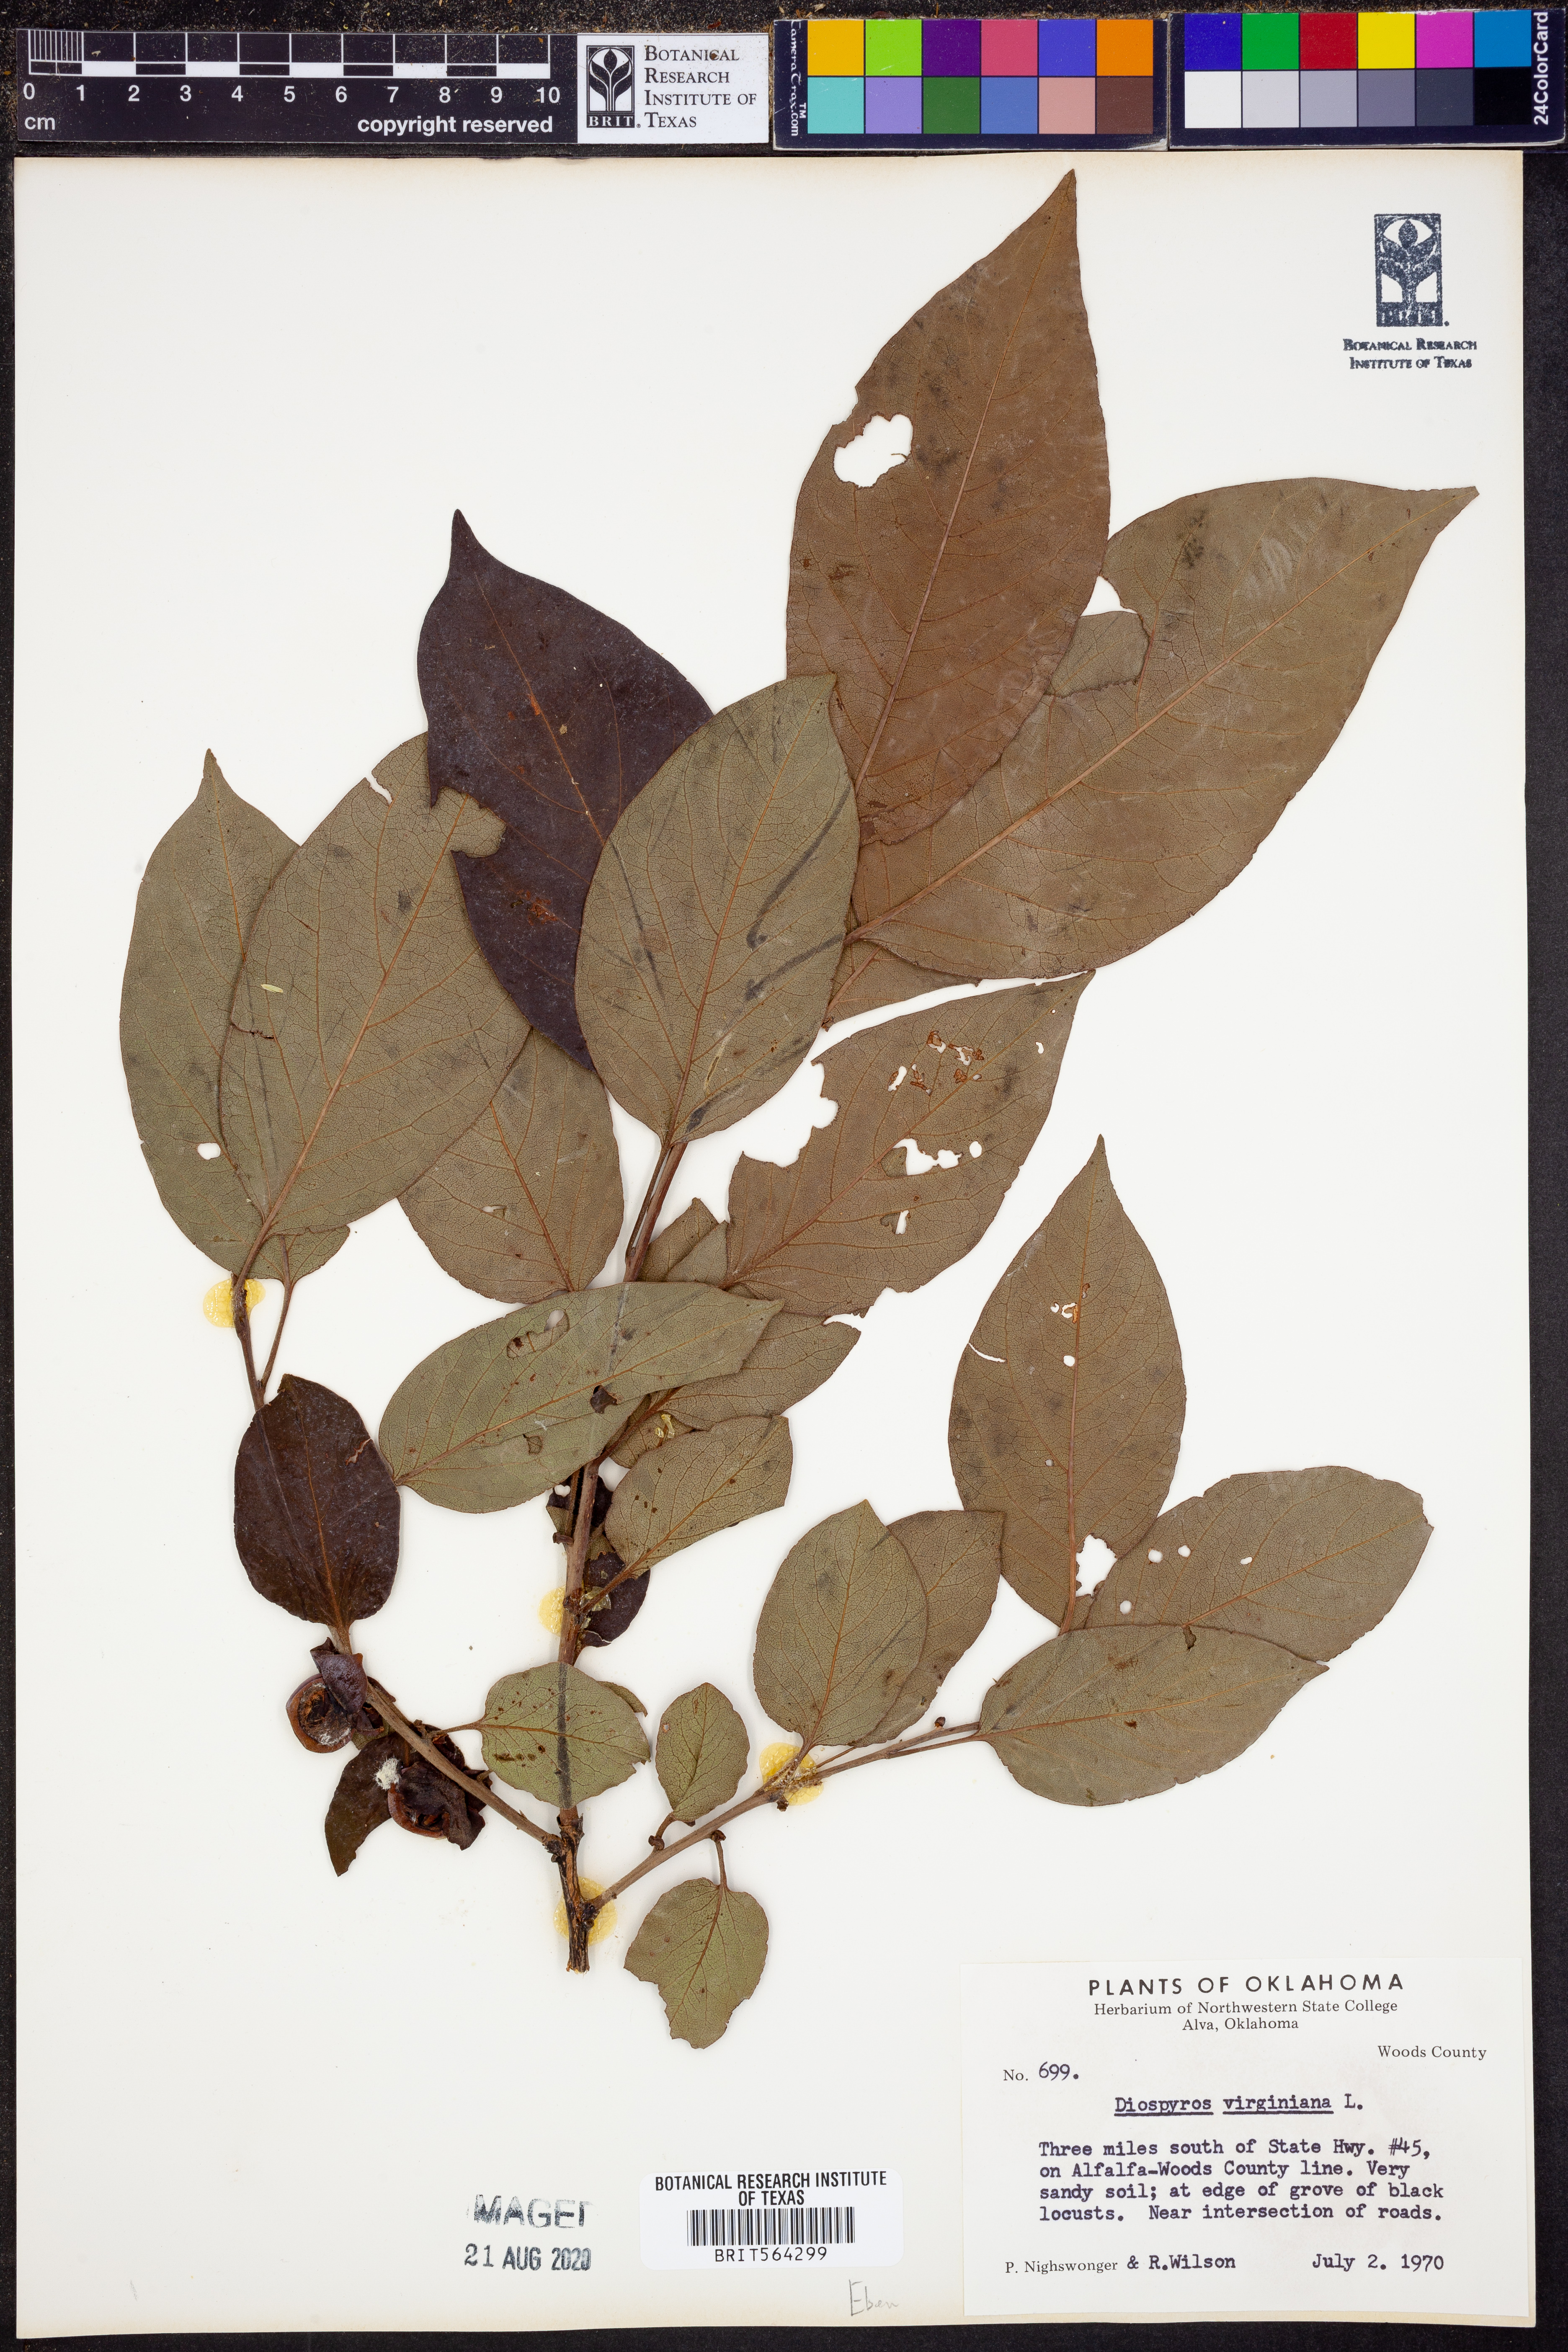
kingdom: Plantae
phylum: Tracheophyta
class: Magnoliopsida
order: Ericales
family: Ebenaceae
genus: Diospyros
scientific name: Diospyros virginiana
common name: Persimmon
